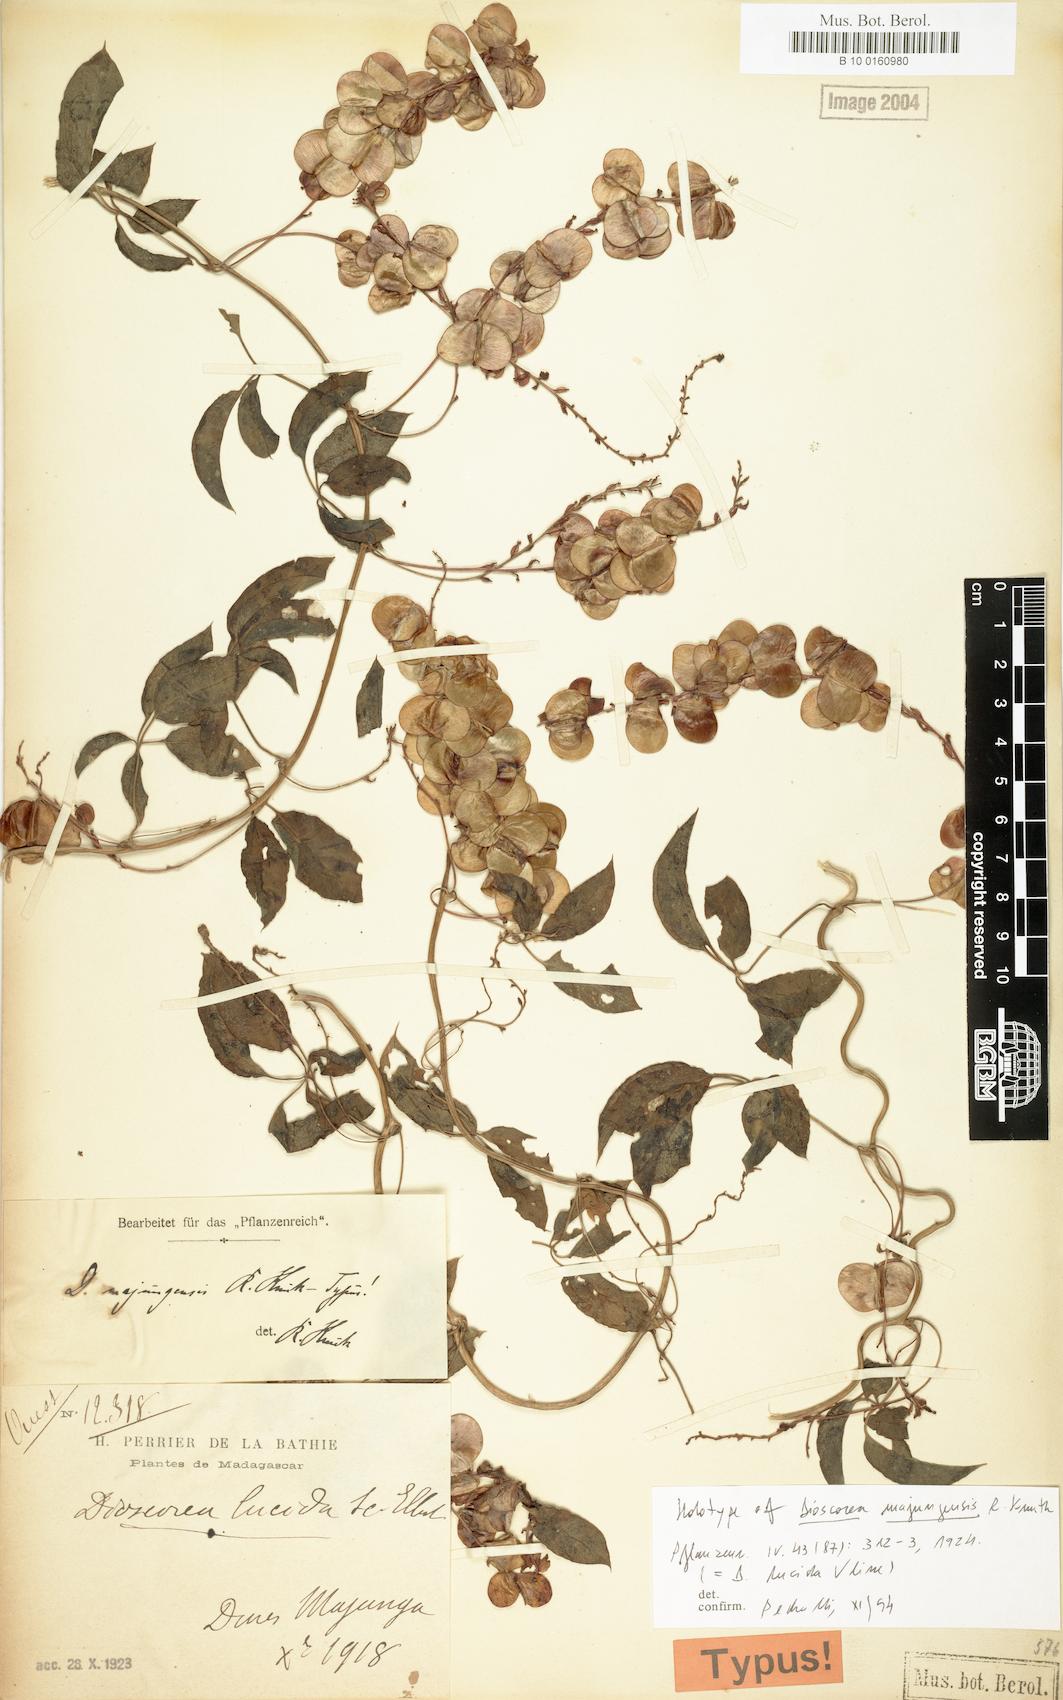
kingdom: Plantae
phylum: Tracheophyta
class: Liliopsida
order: Dioscoreales
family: Dioscoreaceae
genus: Dioscorea
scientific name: Dioscorea bemarivensis
